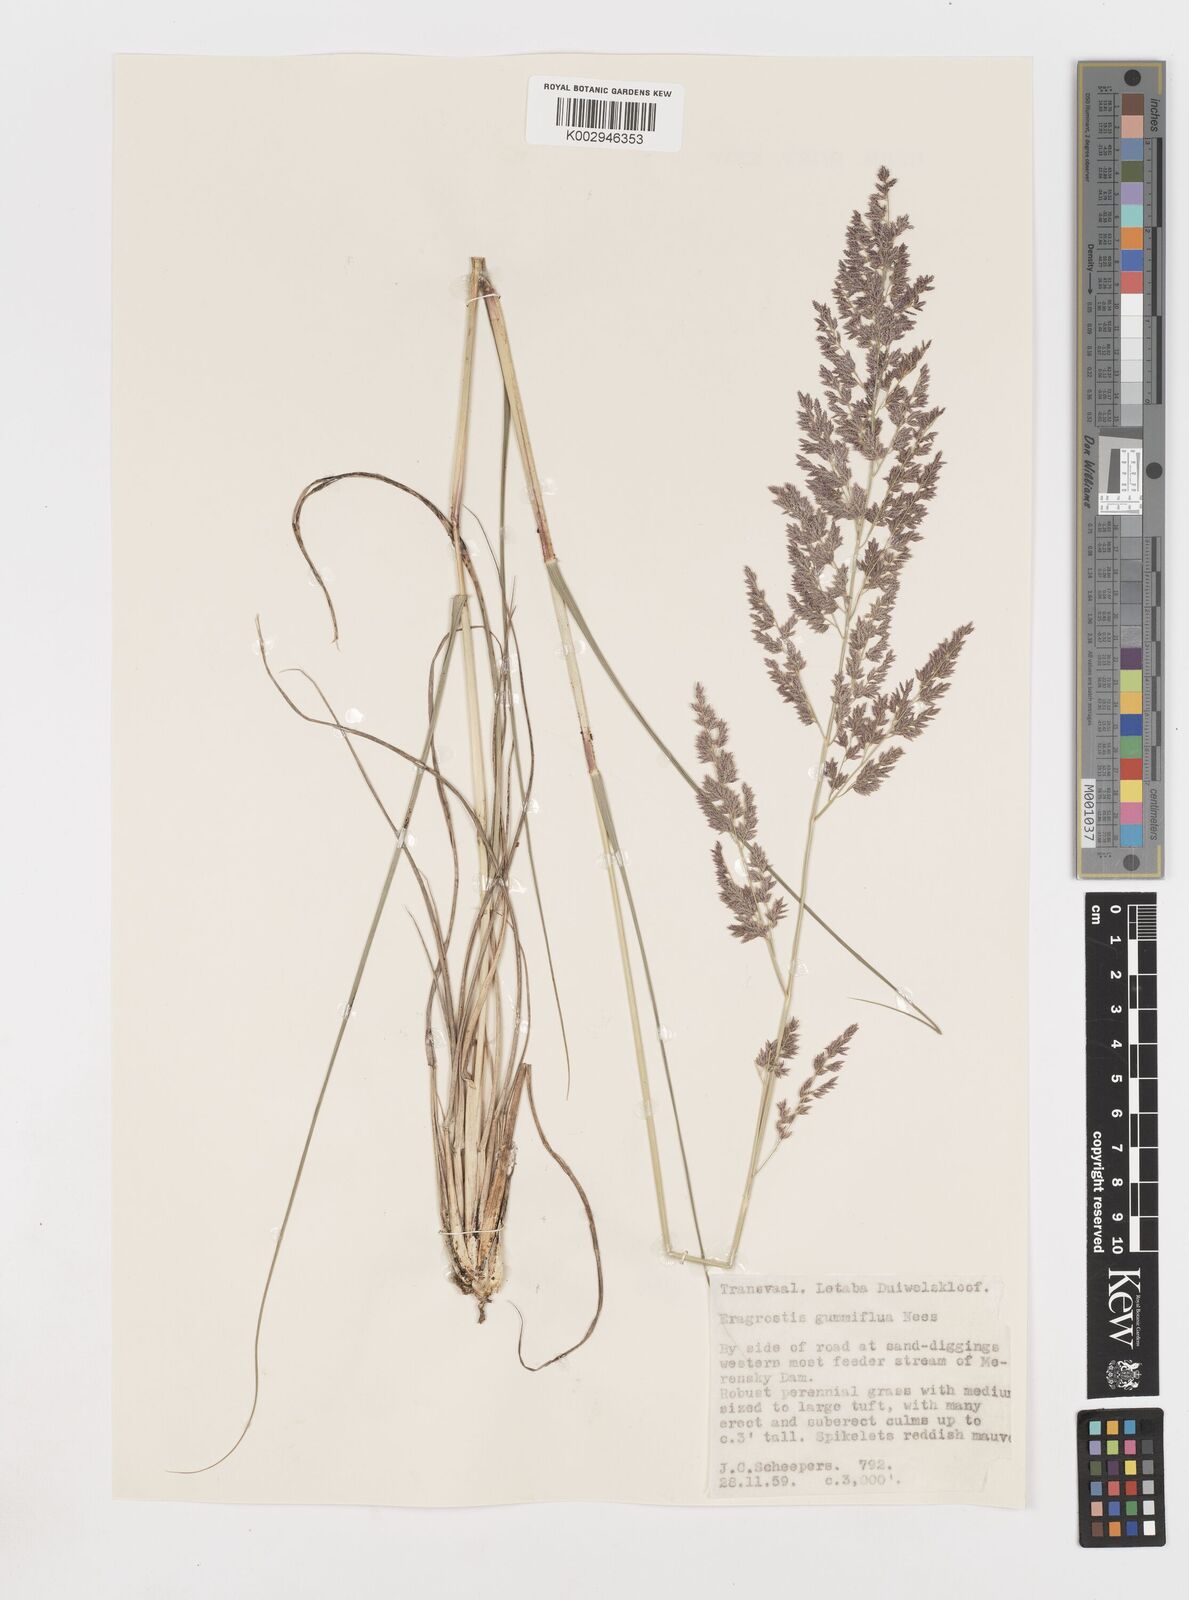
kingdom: Plantae
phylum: Tracheophyta
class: Liliopsida
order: Poales
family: Poaceae
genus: Eragrostis
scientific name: Eragrostis gummiflua
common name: Gum grass
